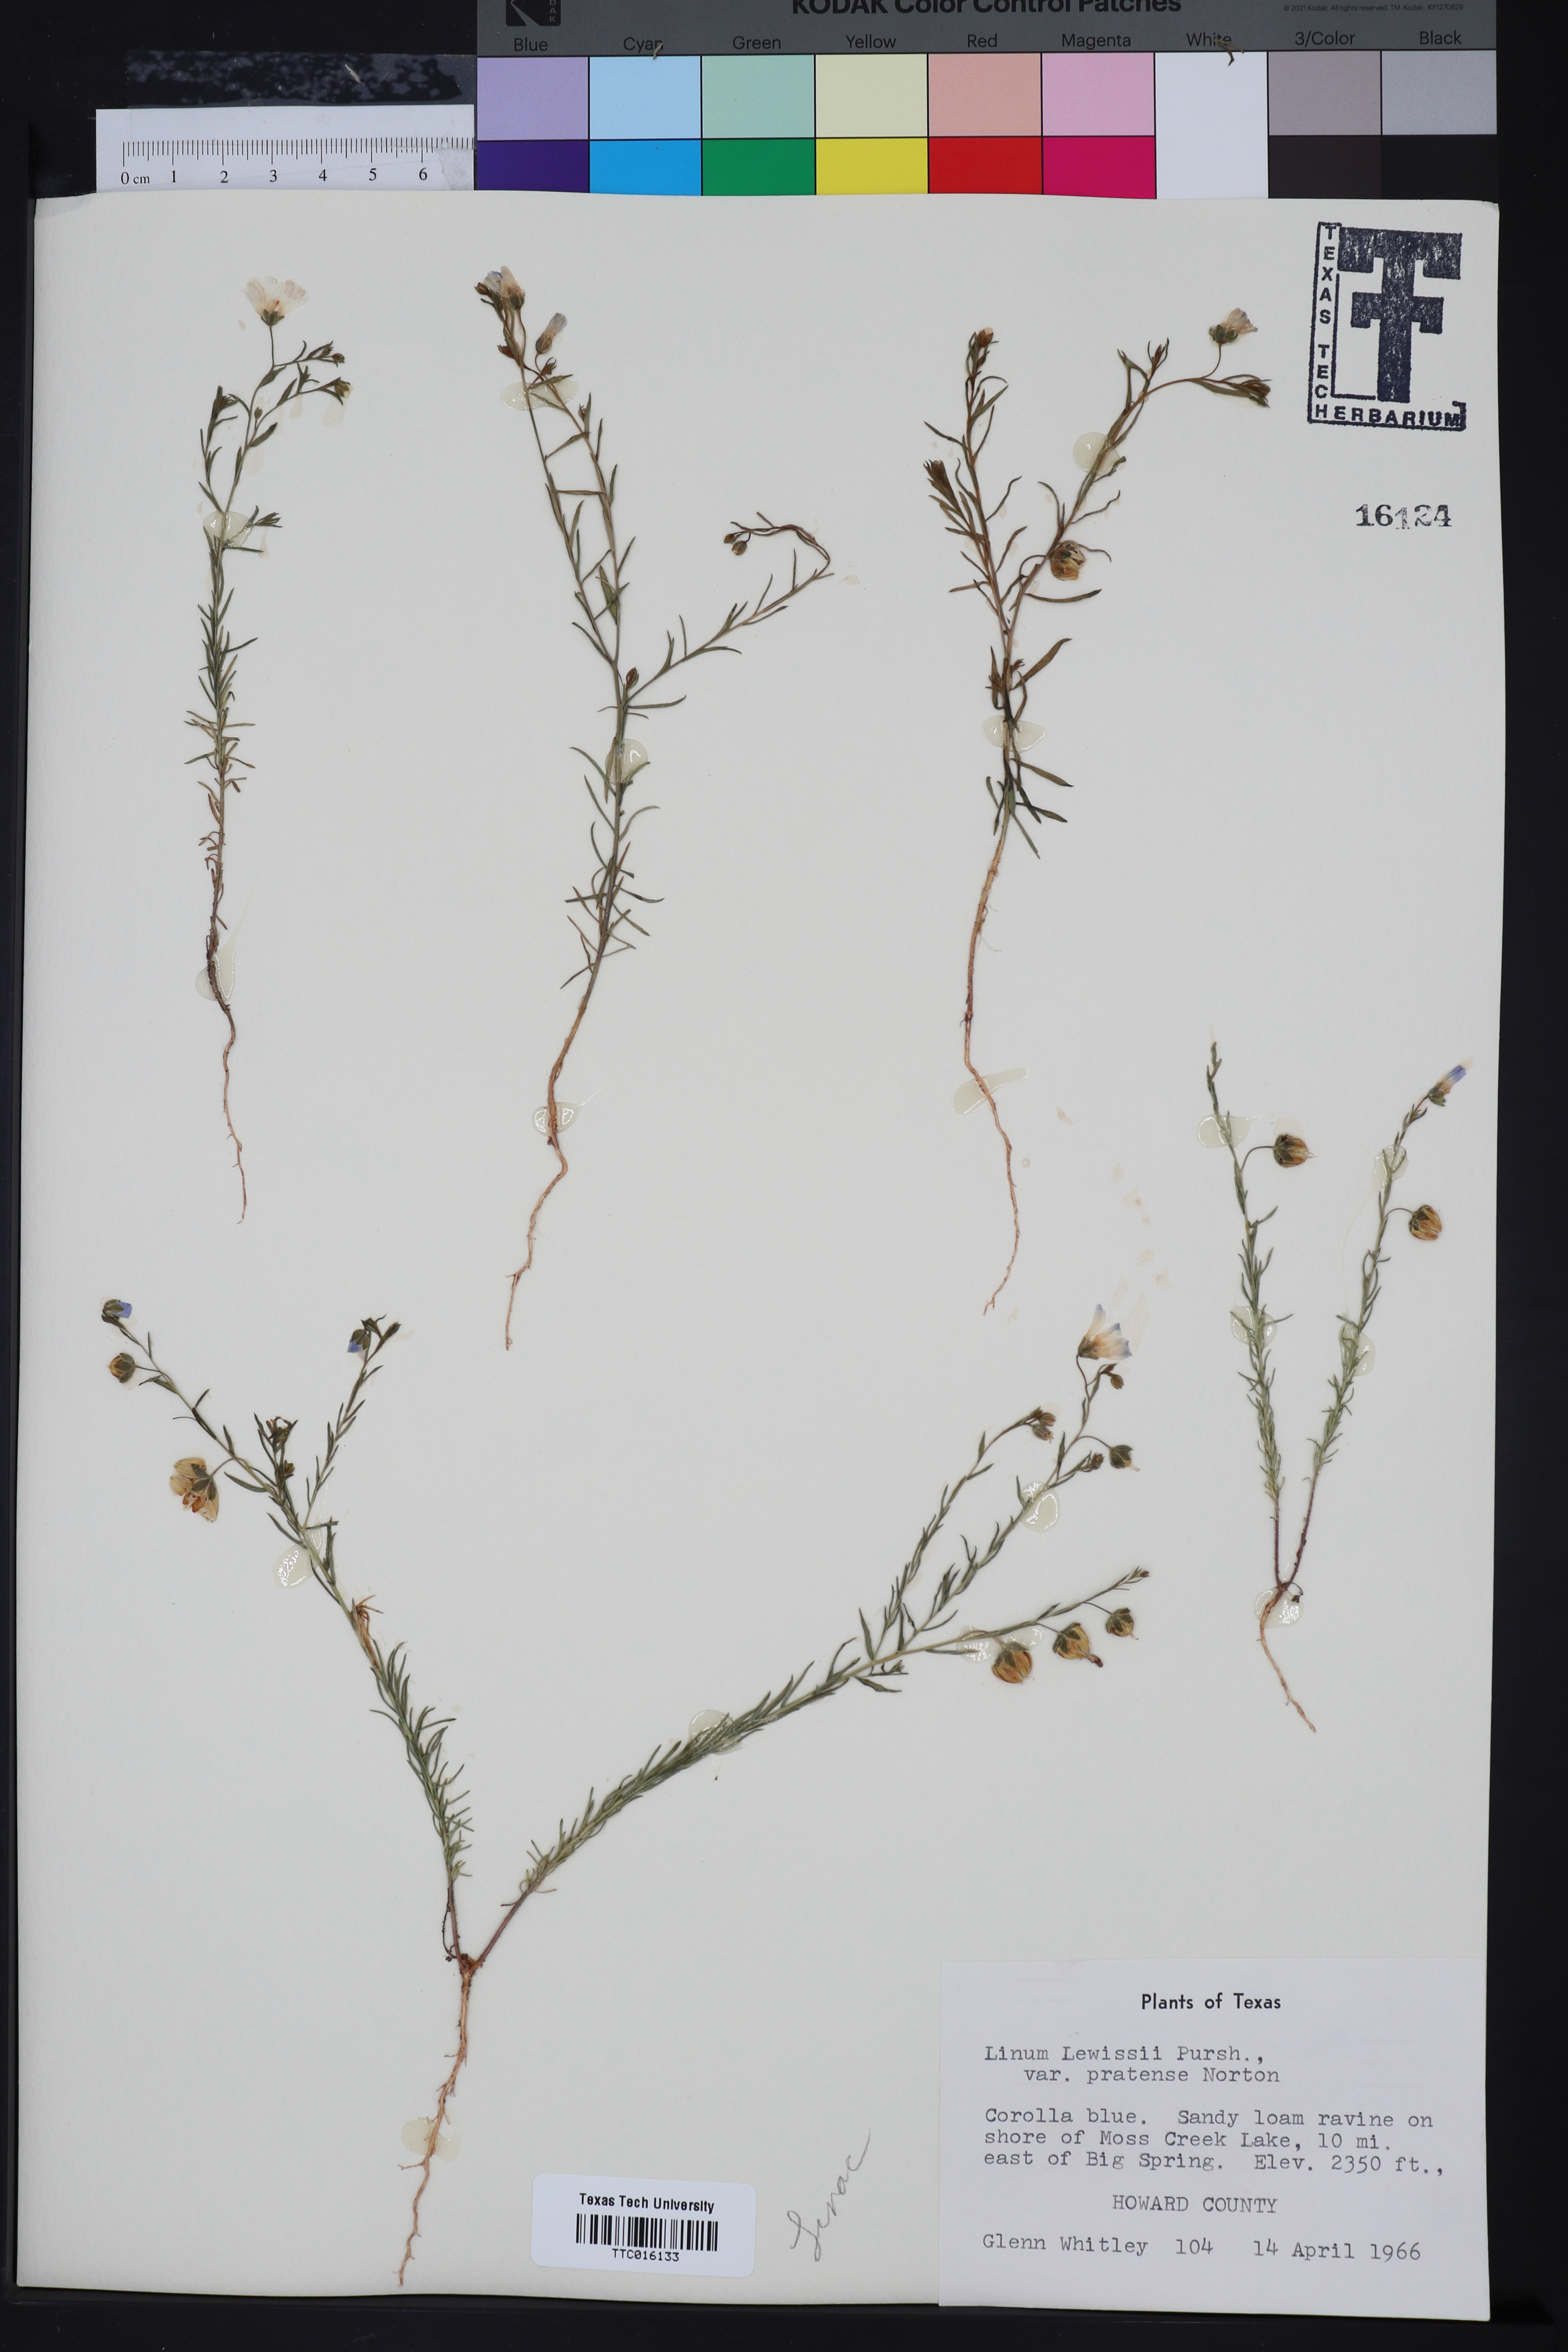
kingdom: Plantae
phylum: Tracheophyta
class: Magnoliopsida
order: Malpighiales
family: Linaceae
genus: Linum
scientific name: Linum lewisii
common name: Prairie flax
